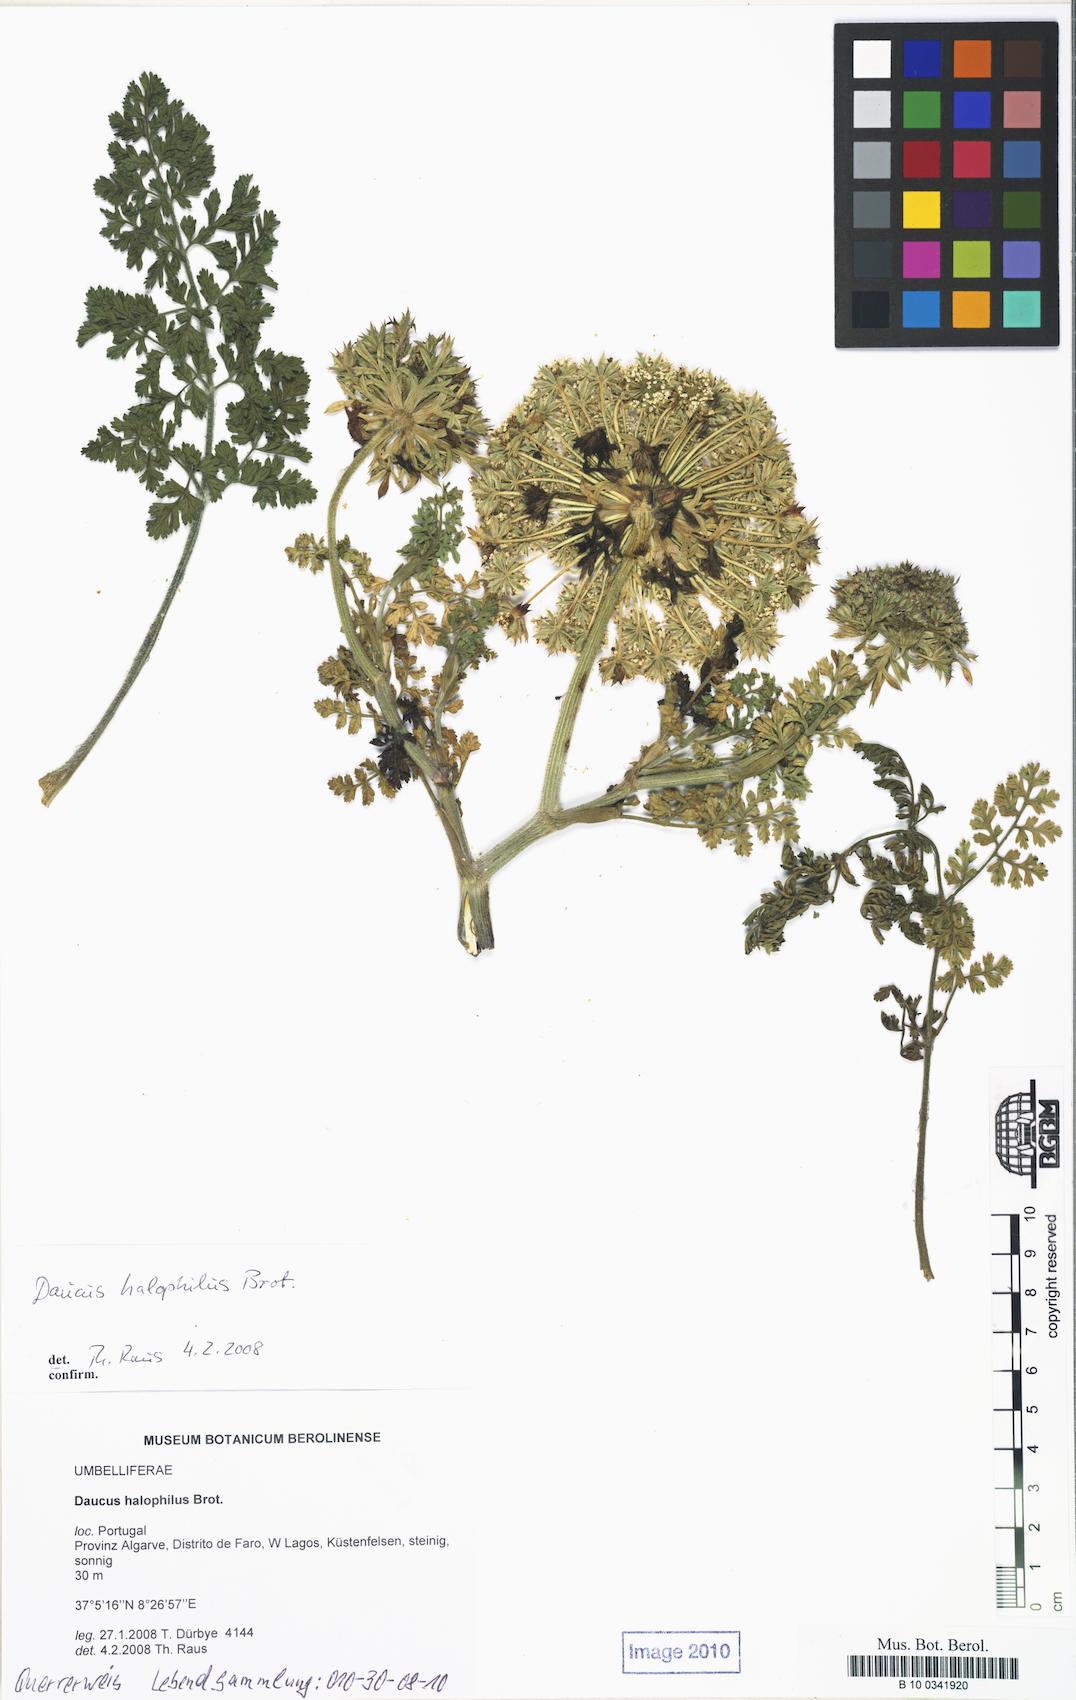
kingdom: Plantae
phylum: Tracheophyta
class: Magnoliopsida
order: Apiales
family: Apiaceae
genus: Daucus
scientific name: Daucus carota
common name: Wild carrot
